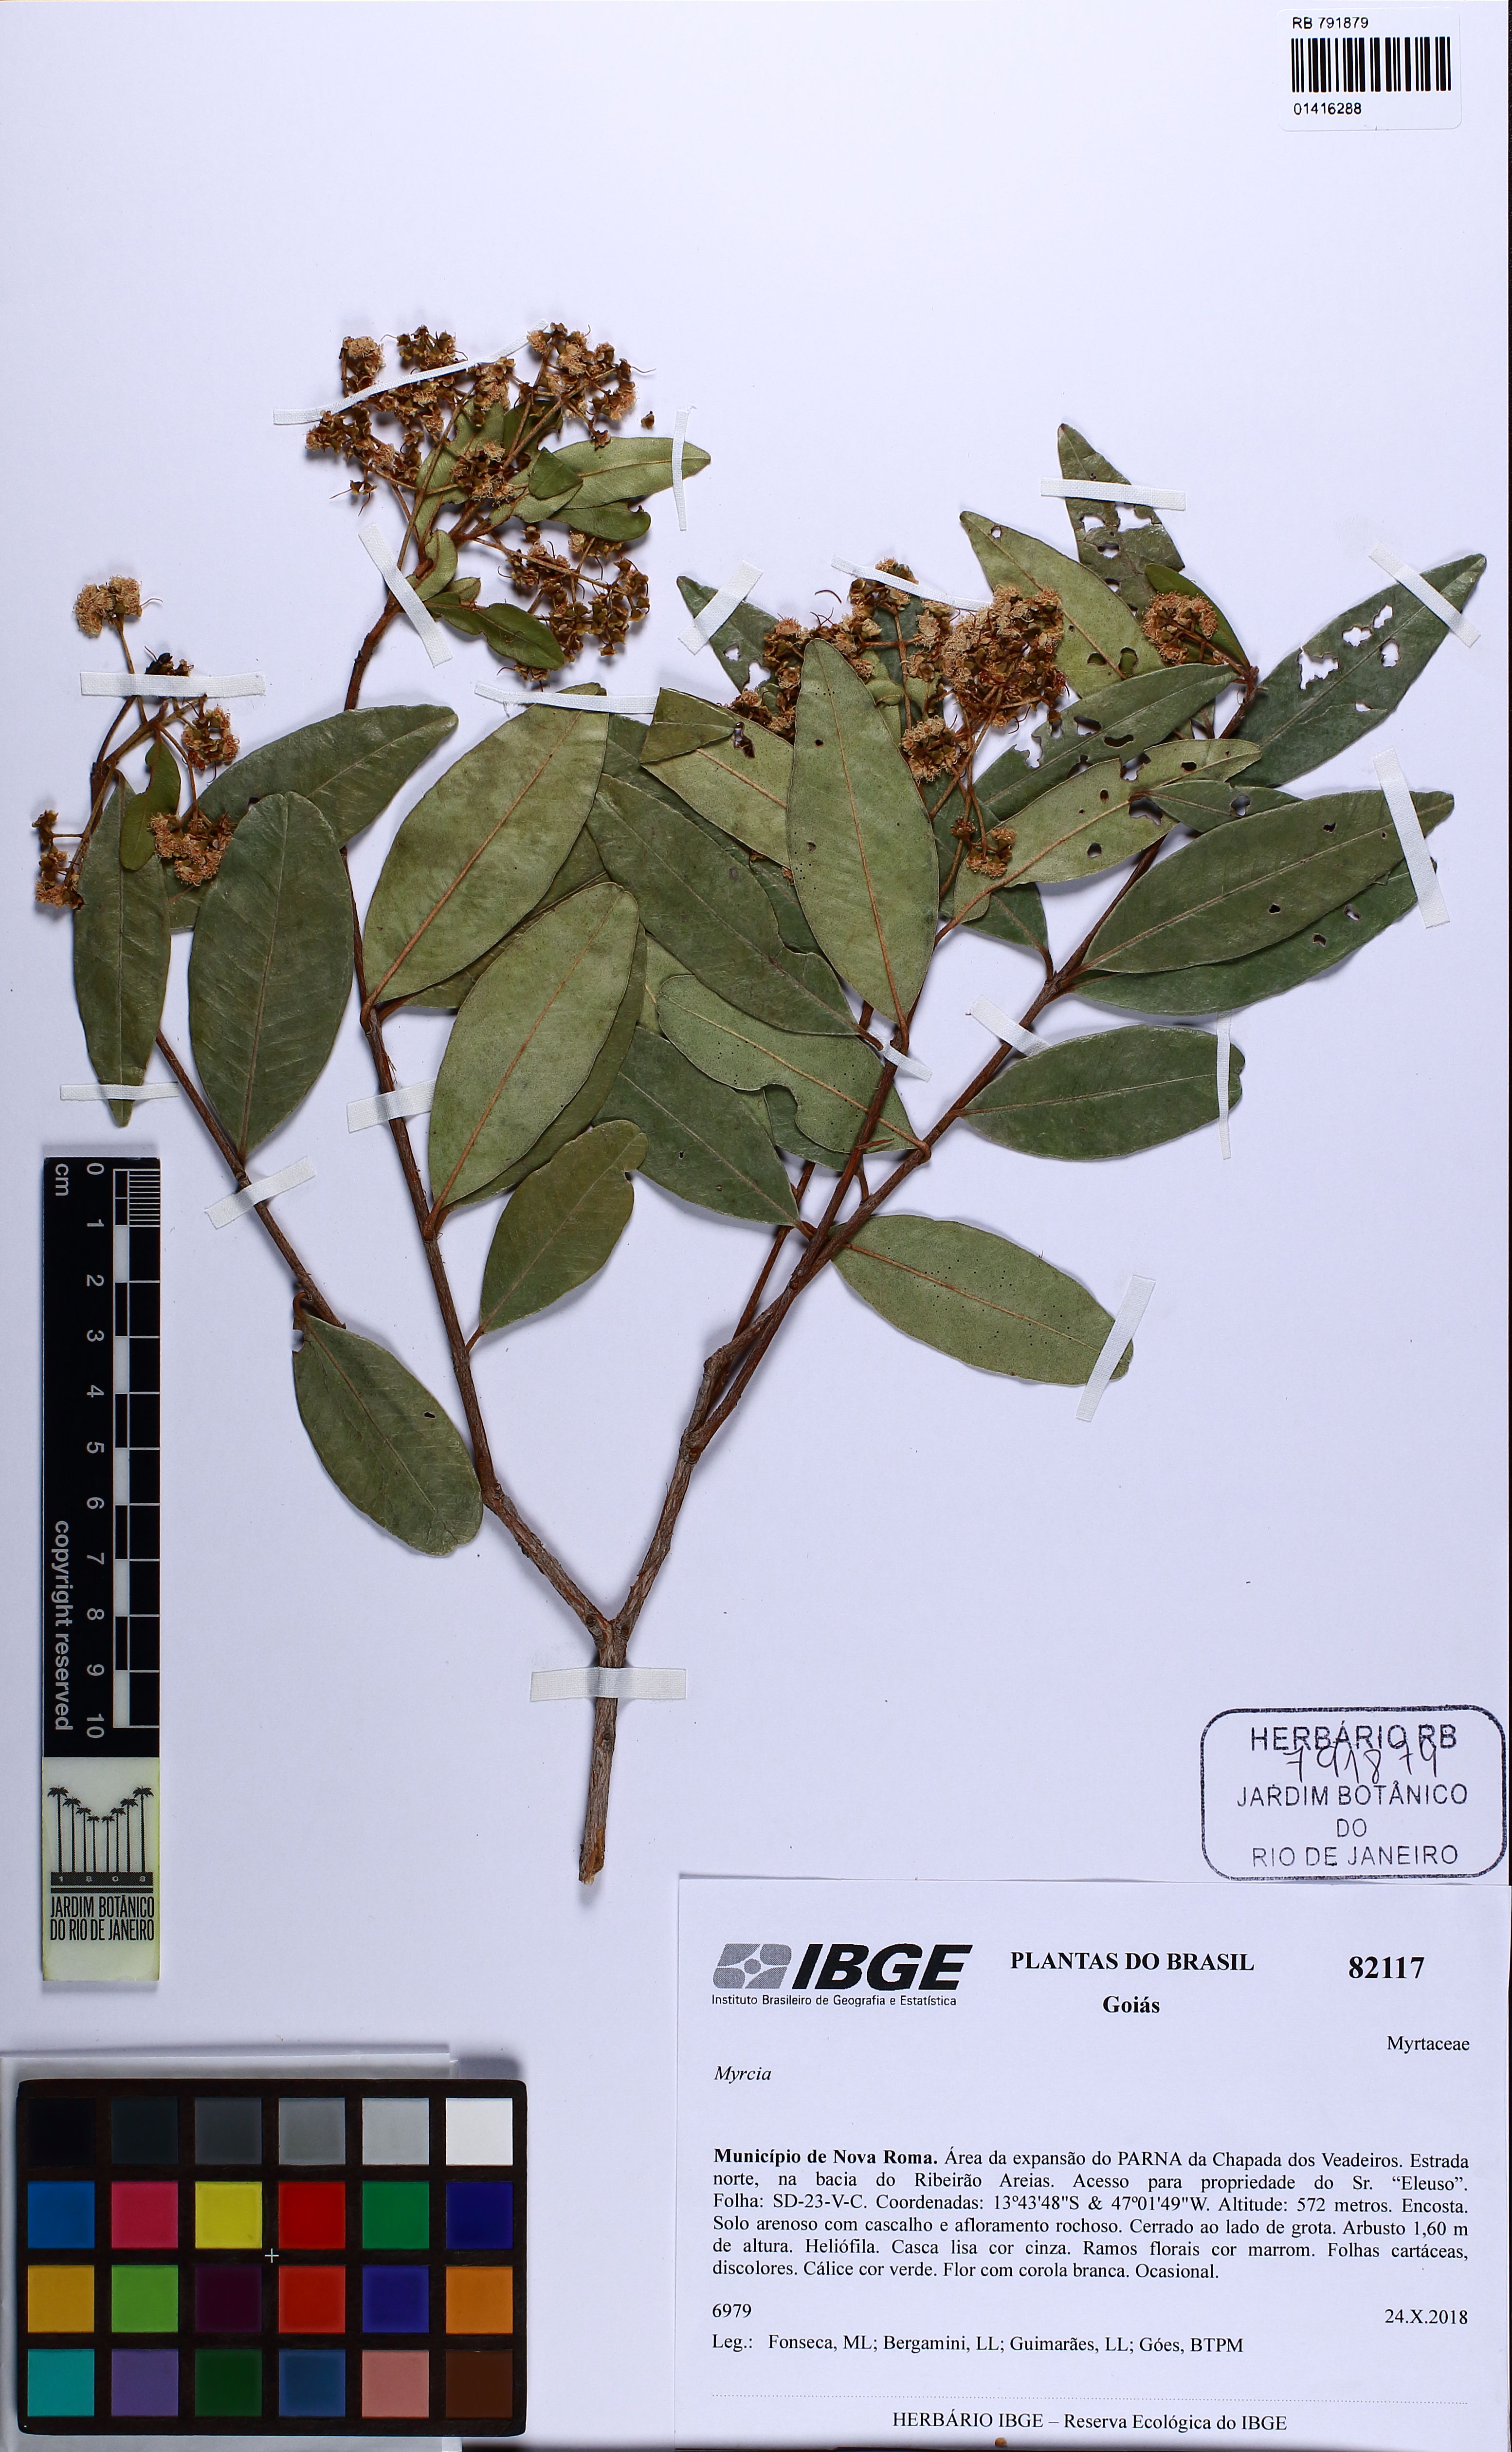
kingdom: Plantae
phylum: Tracheophyta
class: Magnoliopsida
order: Myrtales
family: Myrtaceae
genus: Myrcia
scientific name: Myrcia guianensis
